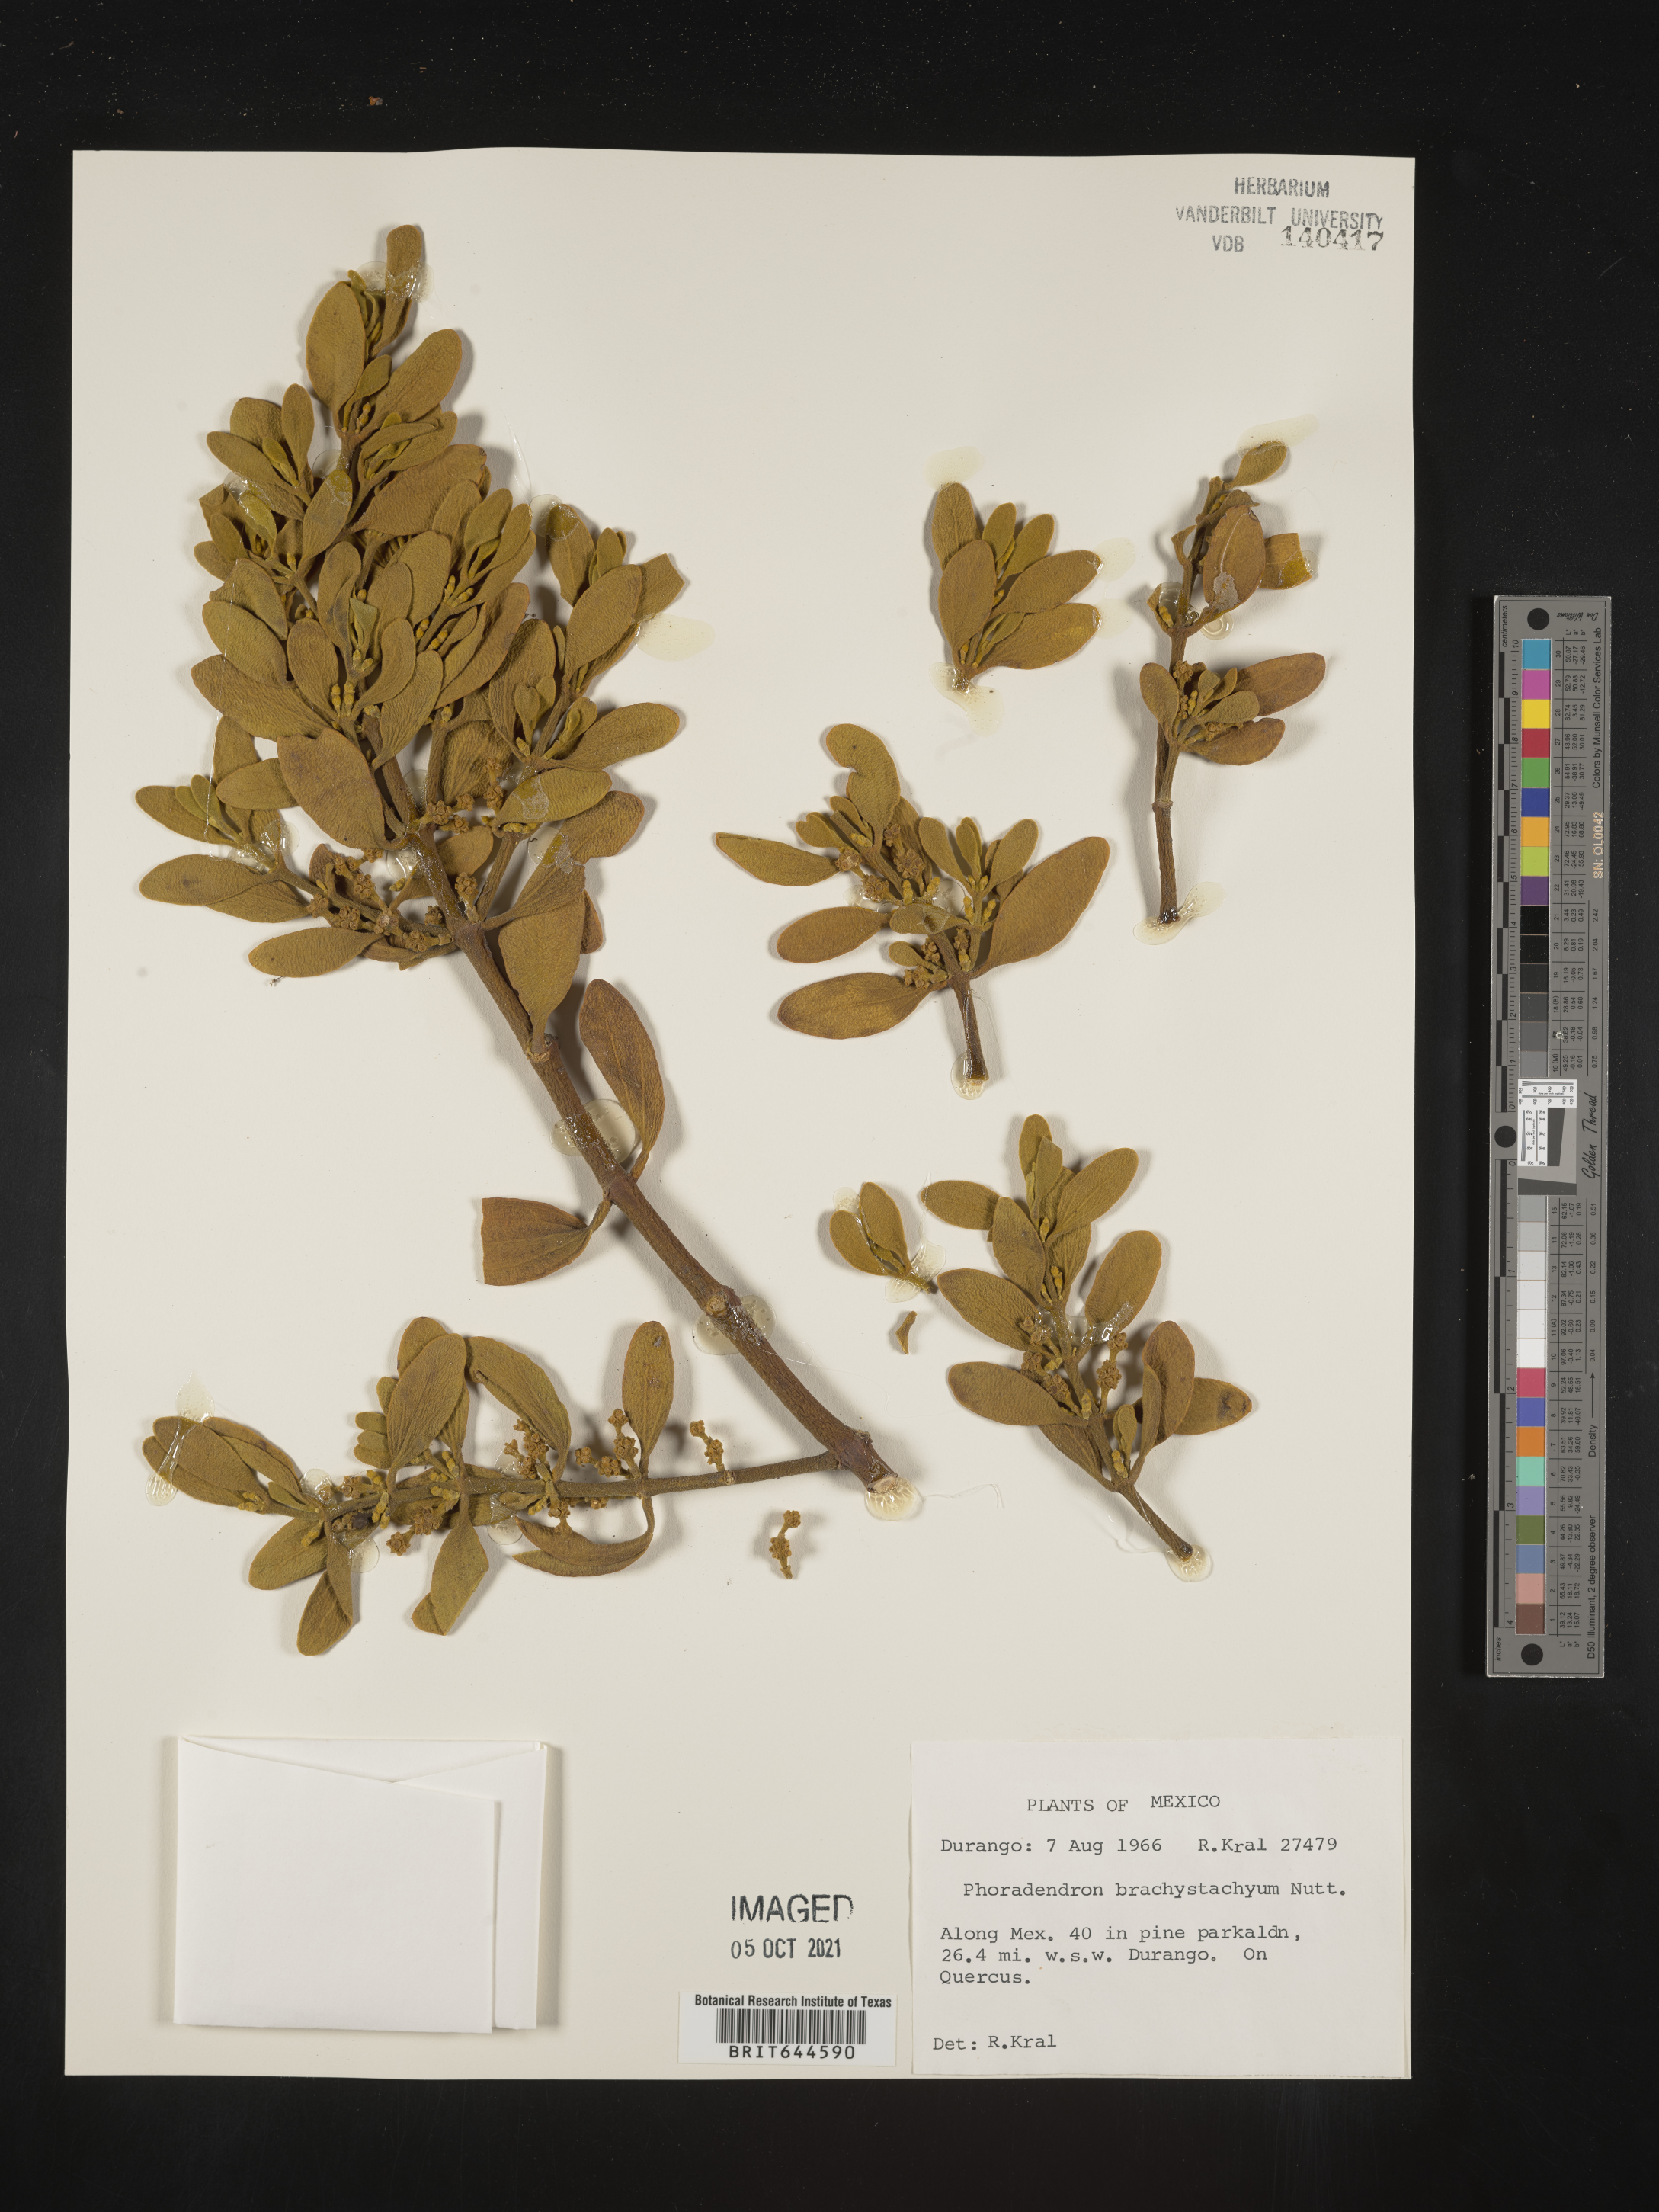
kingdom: Plantae
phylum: Tracheophyta
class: Magnoliopsida
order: Santalales
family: Viscaceae
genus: Phoradendron
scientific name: Phoradendron
